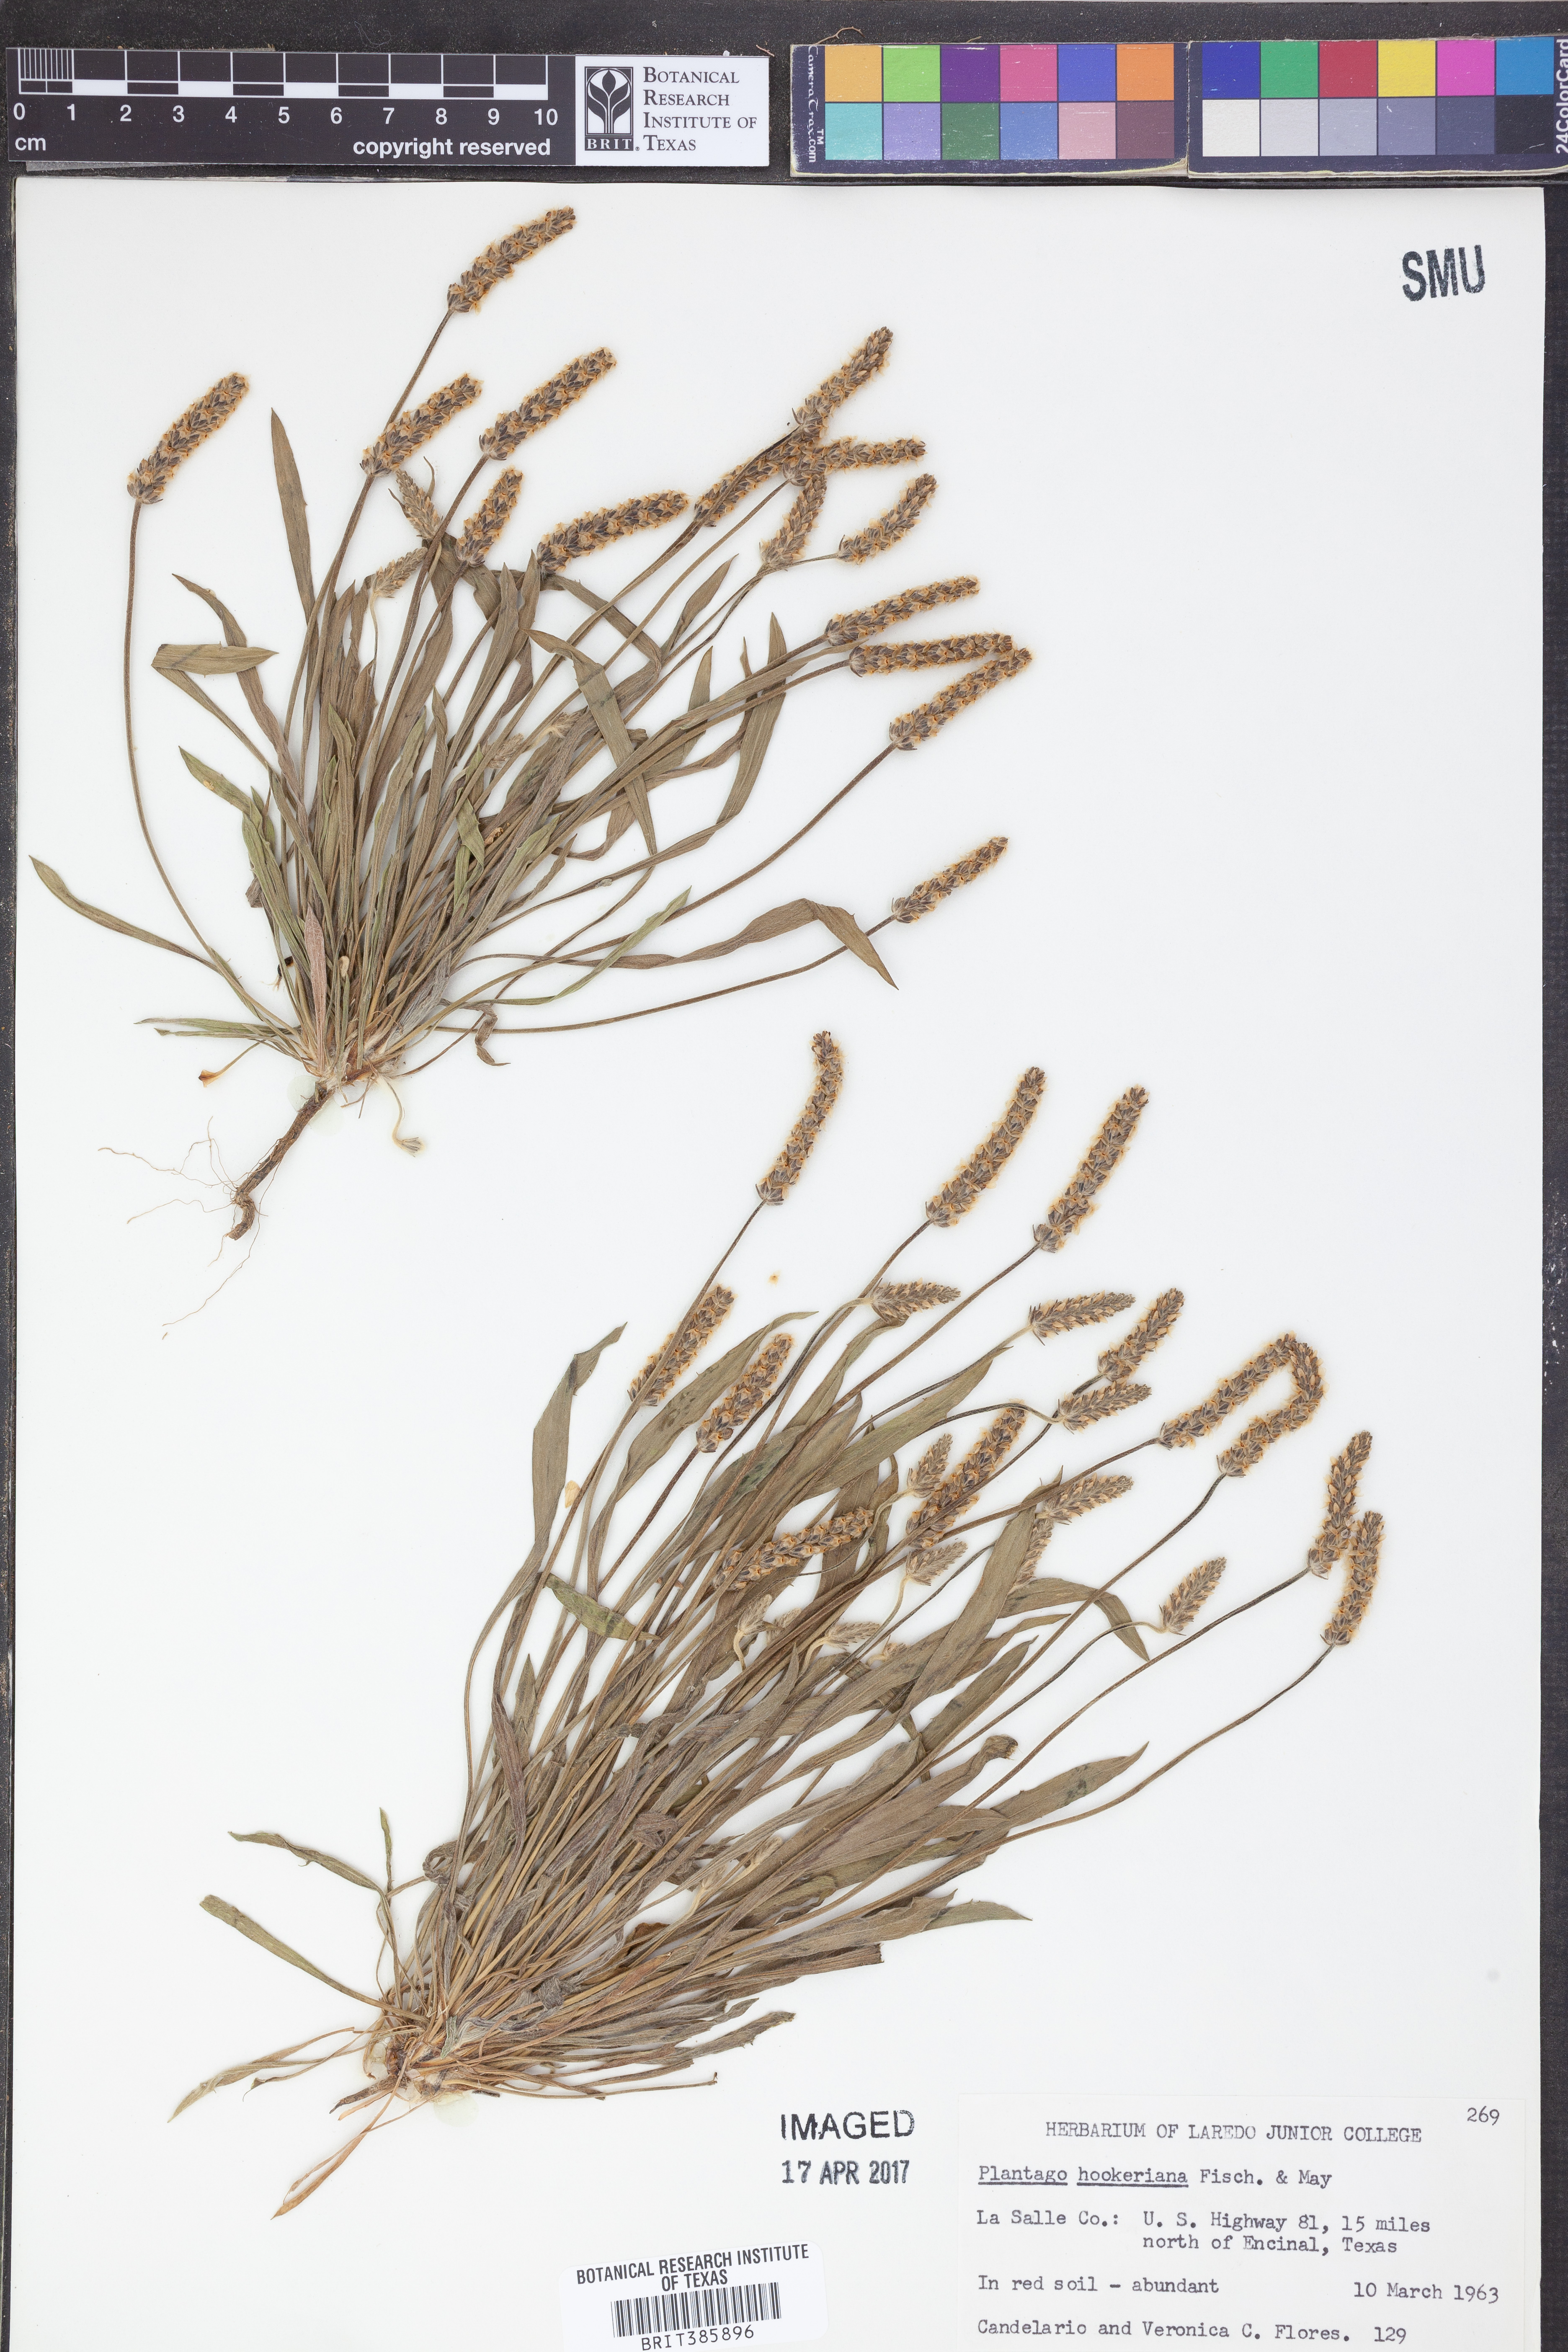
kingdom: Plantae
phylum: Tracheophyta
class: Magnoliopsida
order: Lamiales
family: Plantaginaceae
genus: Plantago
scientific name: Plantago hookeriana
